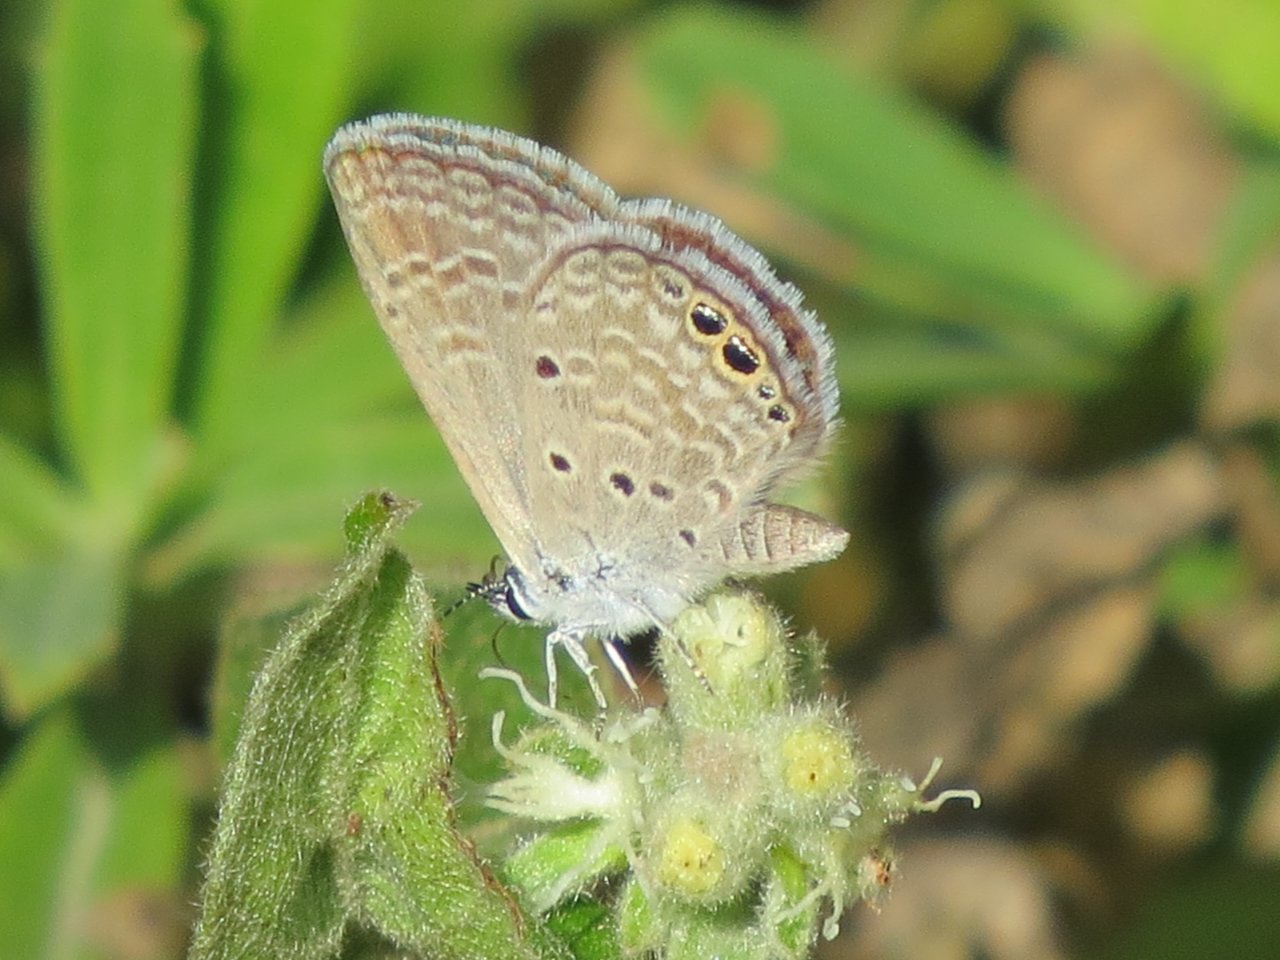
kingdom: Animalia
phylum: Arthropoda
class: Insecta
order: Lepidoptera
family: Lycaenidae
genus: Hemiargus
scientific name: Hemiargus ceraunus
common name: Ceraunus Blue
